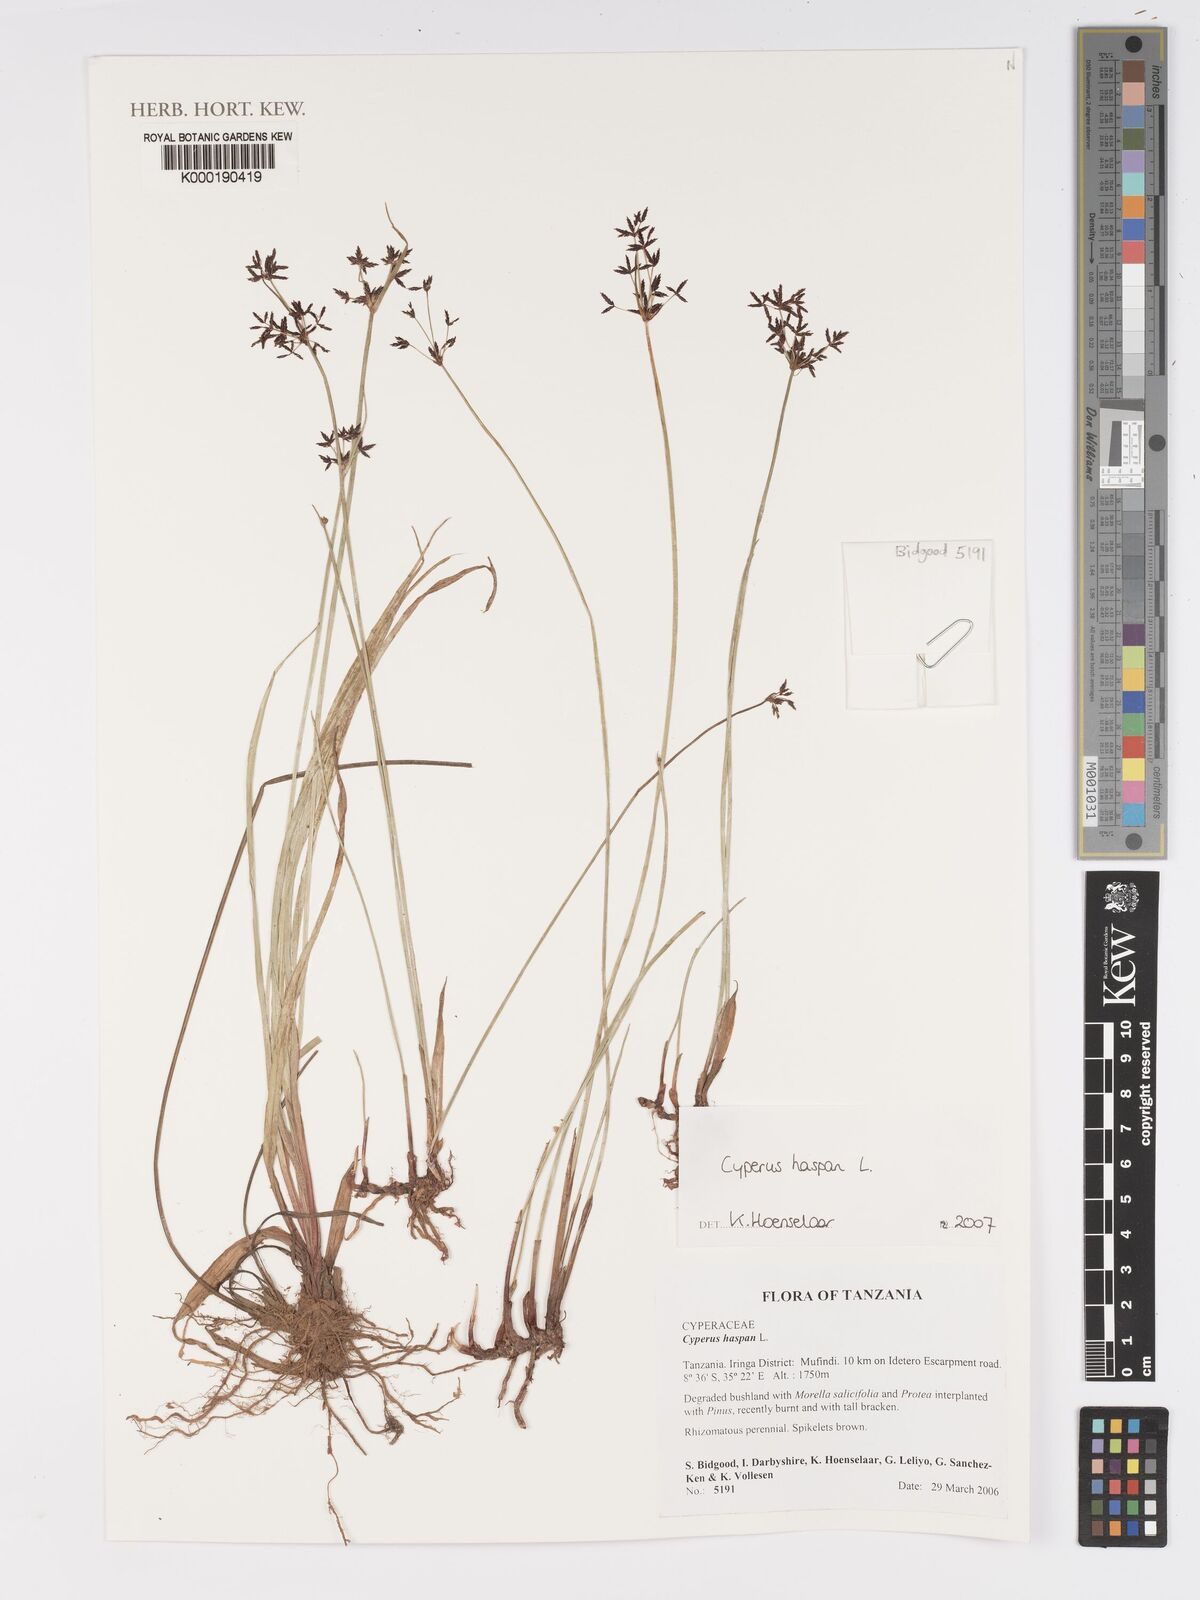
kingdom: Plantae
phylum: Tracheophyta
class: Liliopsida
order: Poales
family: Cyperaceae
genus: Cyperus
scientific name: Cyperus haspan
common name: Haspan flatsedge
